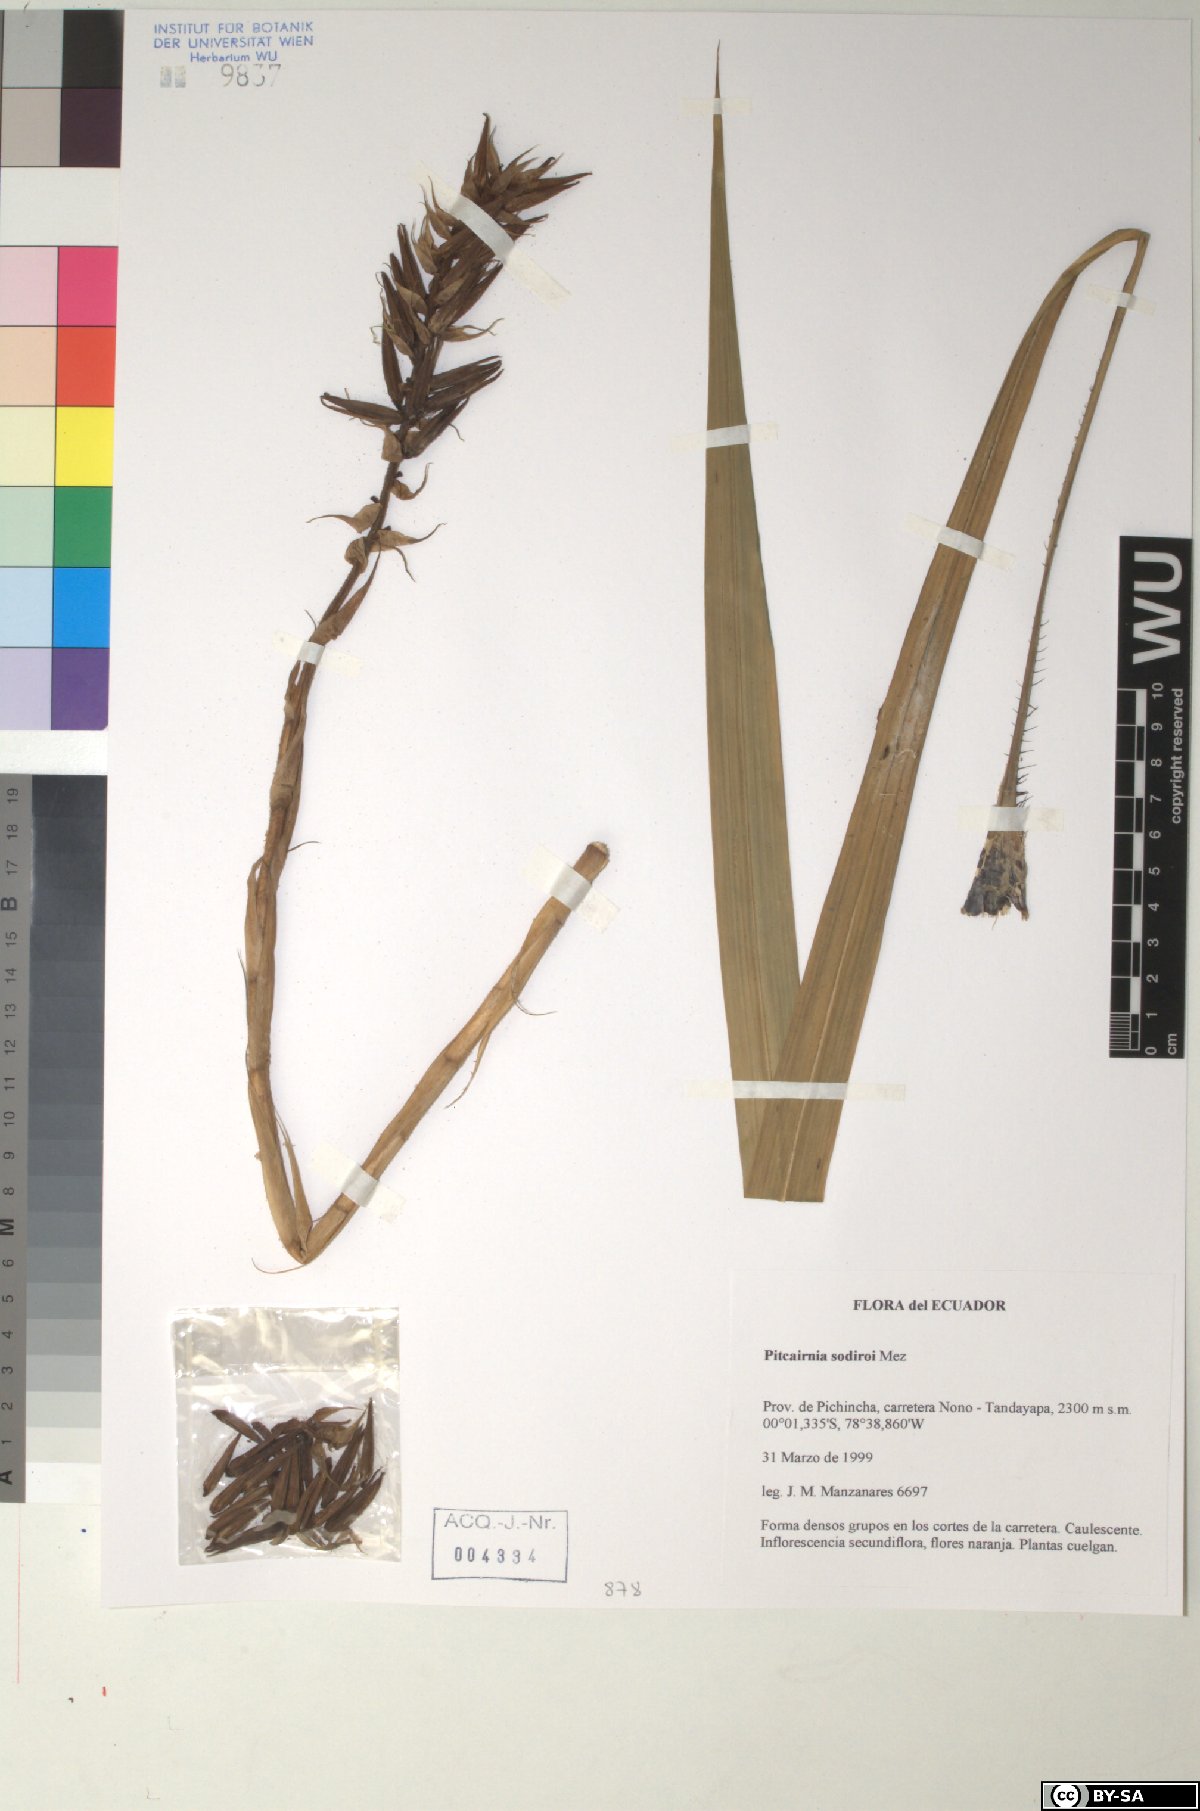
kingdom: Plantae
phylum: Tracheophyta
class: Liliopsida
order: Poales
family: Bromeliaceae
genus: Pitcairnia
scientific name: Pitcairnia sodiroi
